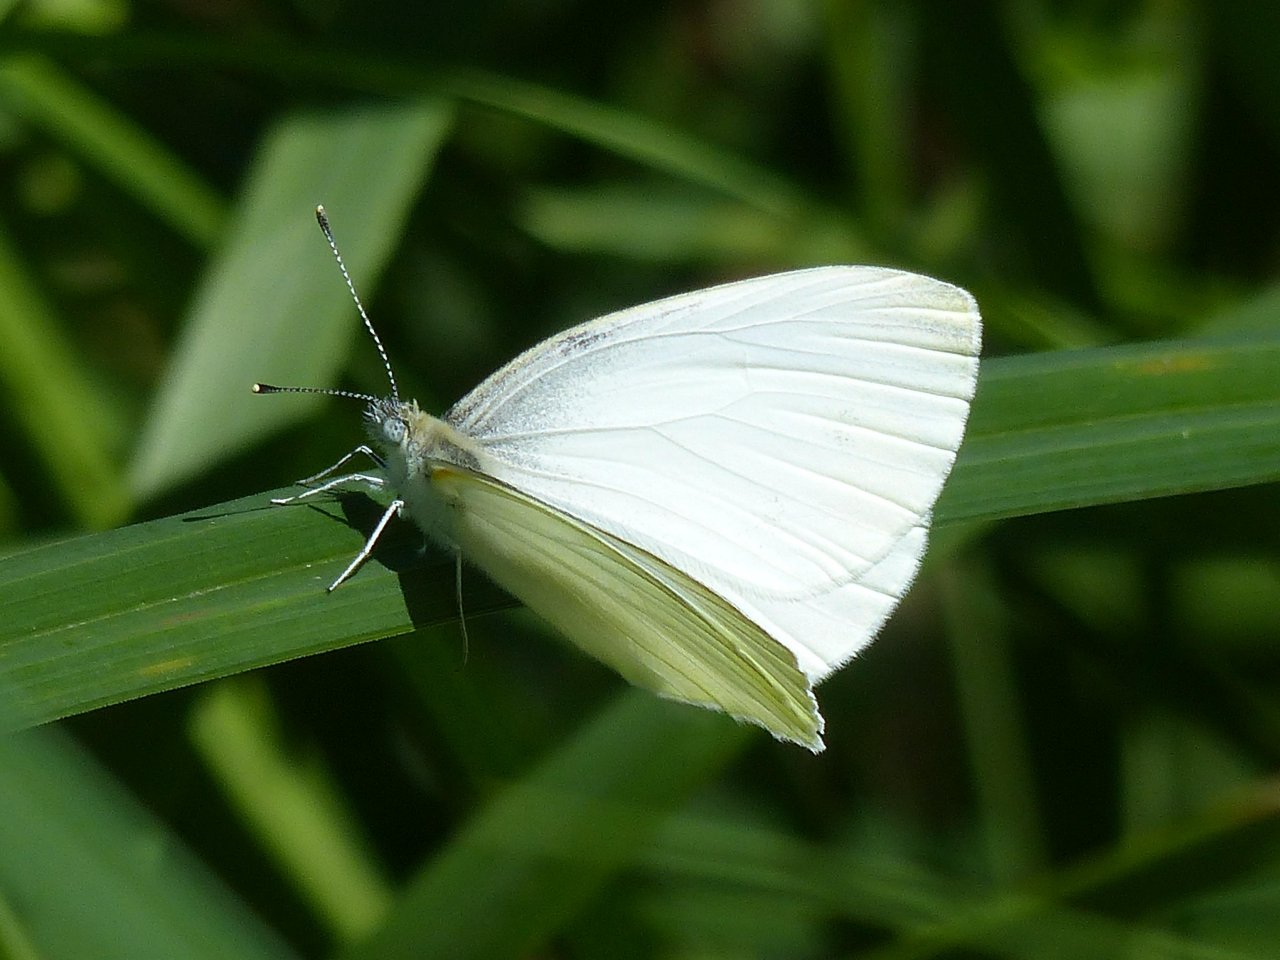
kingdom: Animalia
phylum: Arthropoda
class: Insecta
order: Lepidoptera
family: Pieridae
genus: Pieris
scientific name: Pieris oleracea
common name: Mustard White
